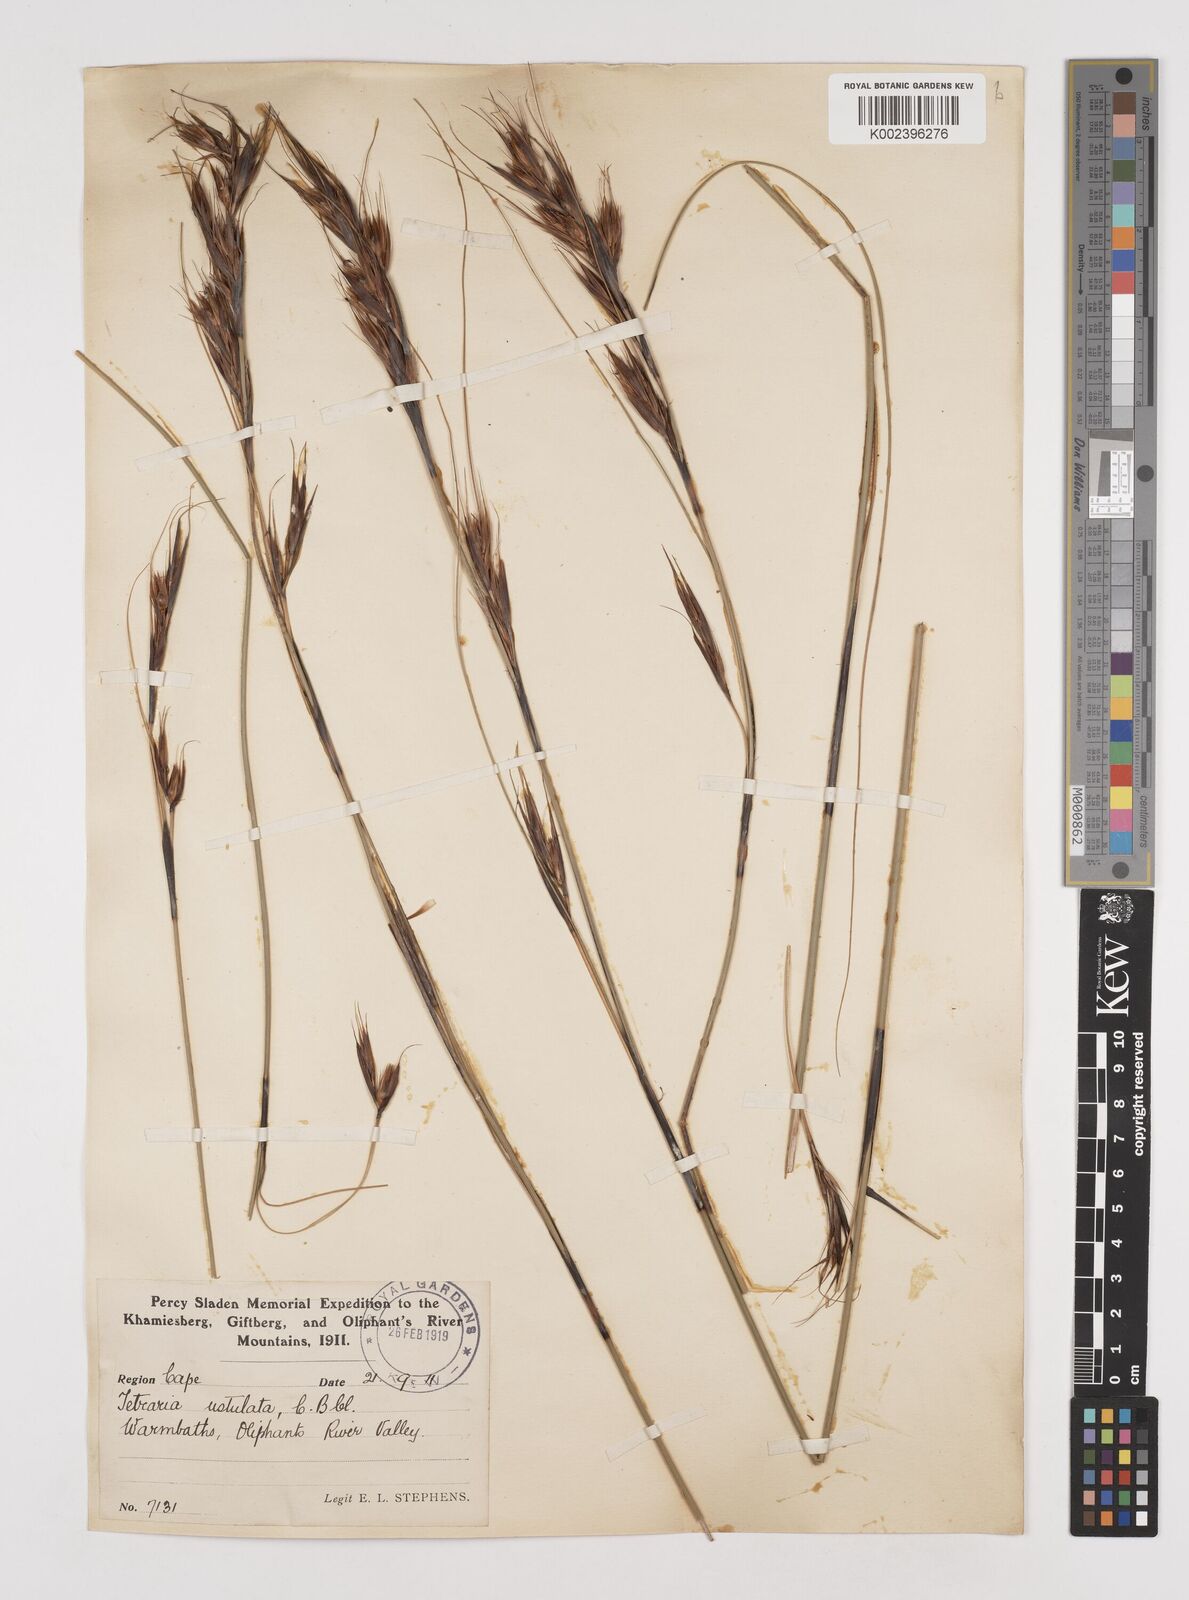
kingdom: Plantae
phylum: Tracheophyta
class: Liliopsida
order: Poales
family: Cyperaceae
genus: Tetraria
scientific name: Tetraria ustulata
